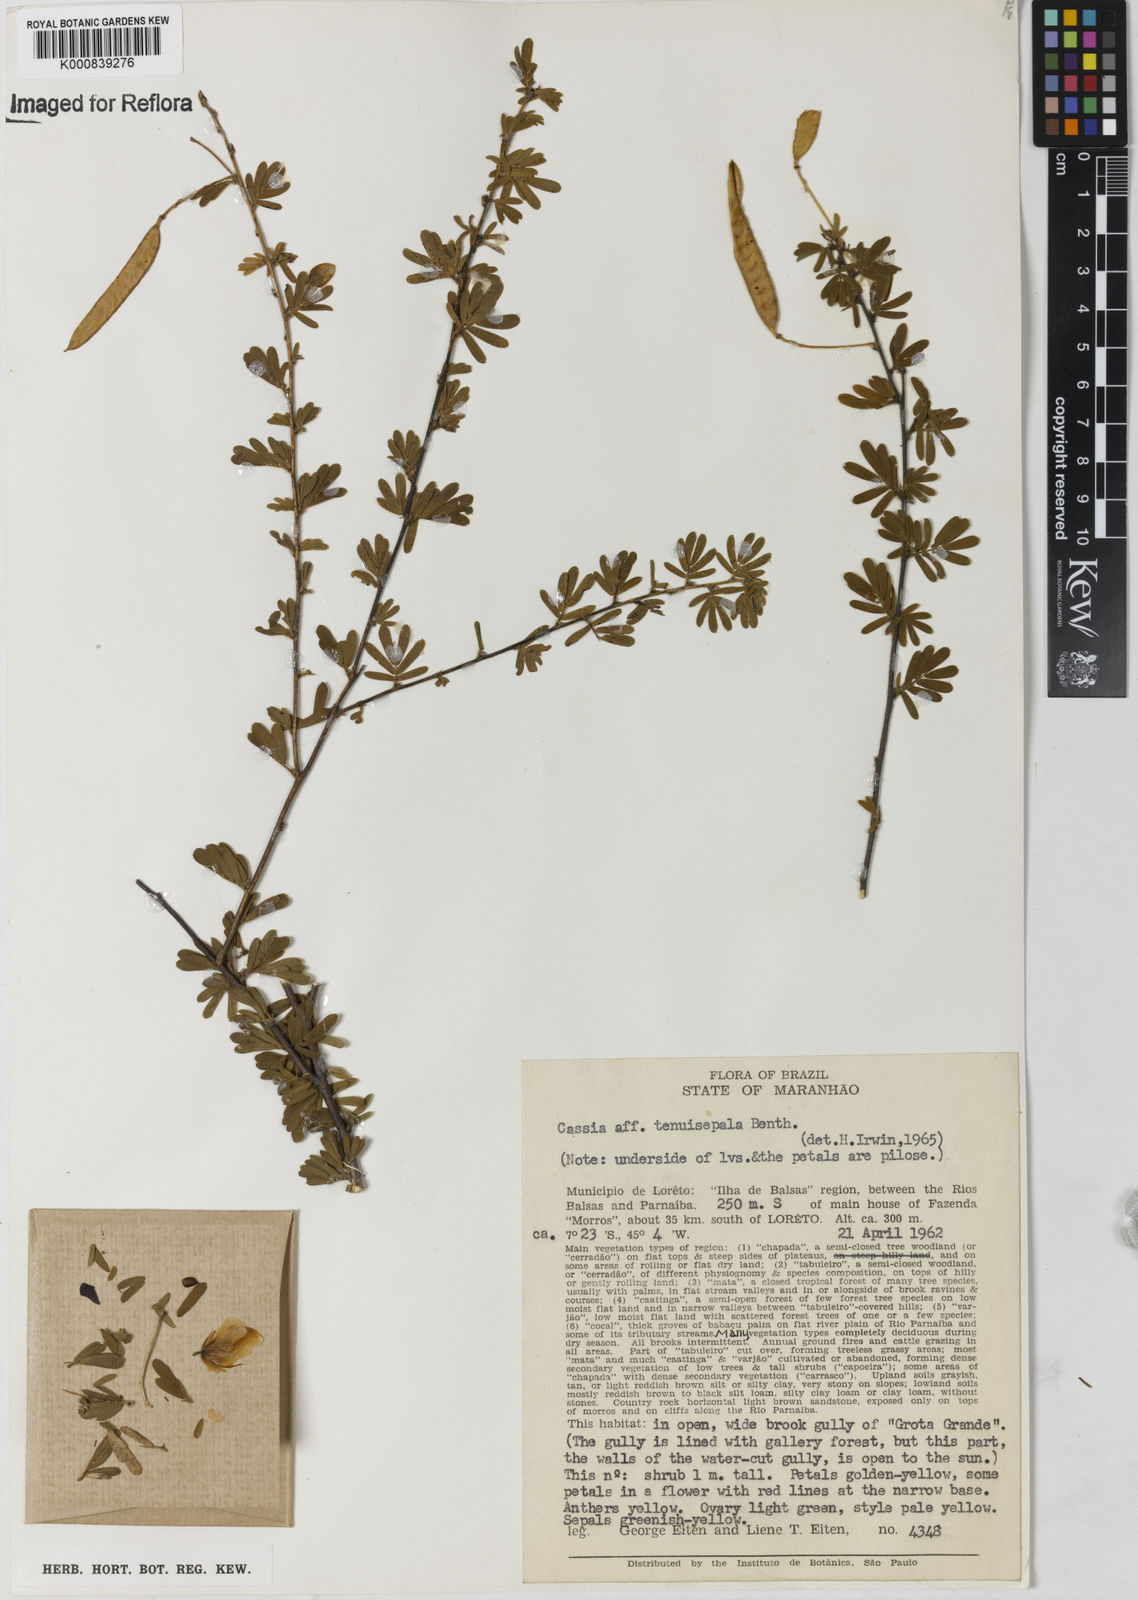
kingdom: Plantae
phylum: Tracheophyta
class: Magnoliopsida
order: Fabales
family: Fabaceae
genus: Chamaecrista
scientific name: Chamaecrista tenuisepala
